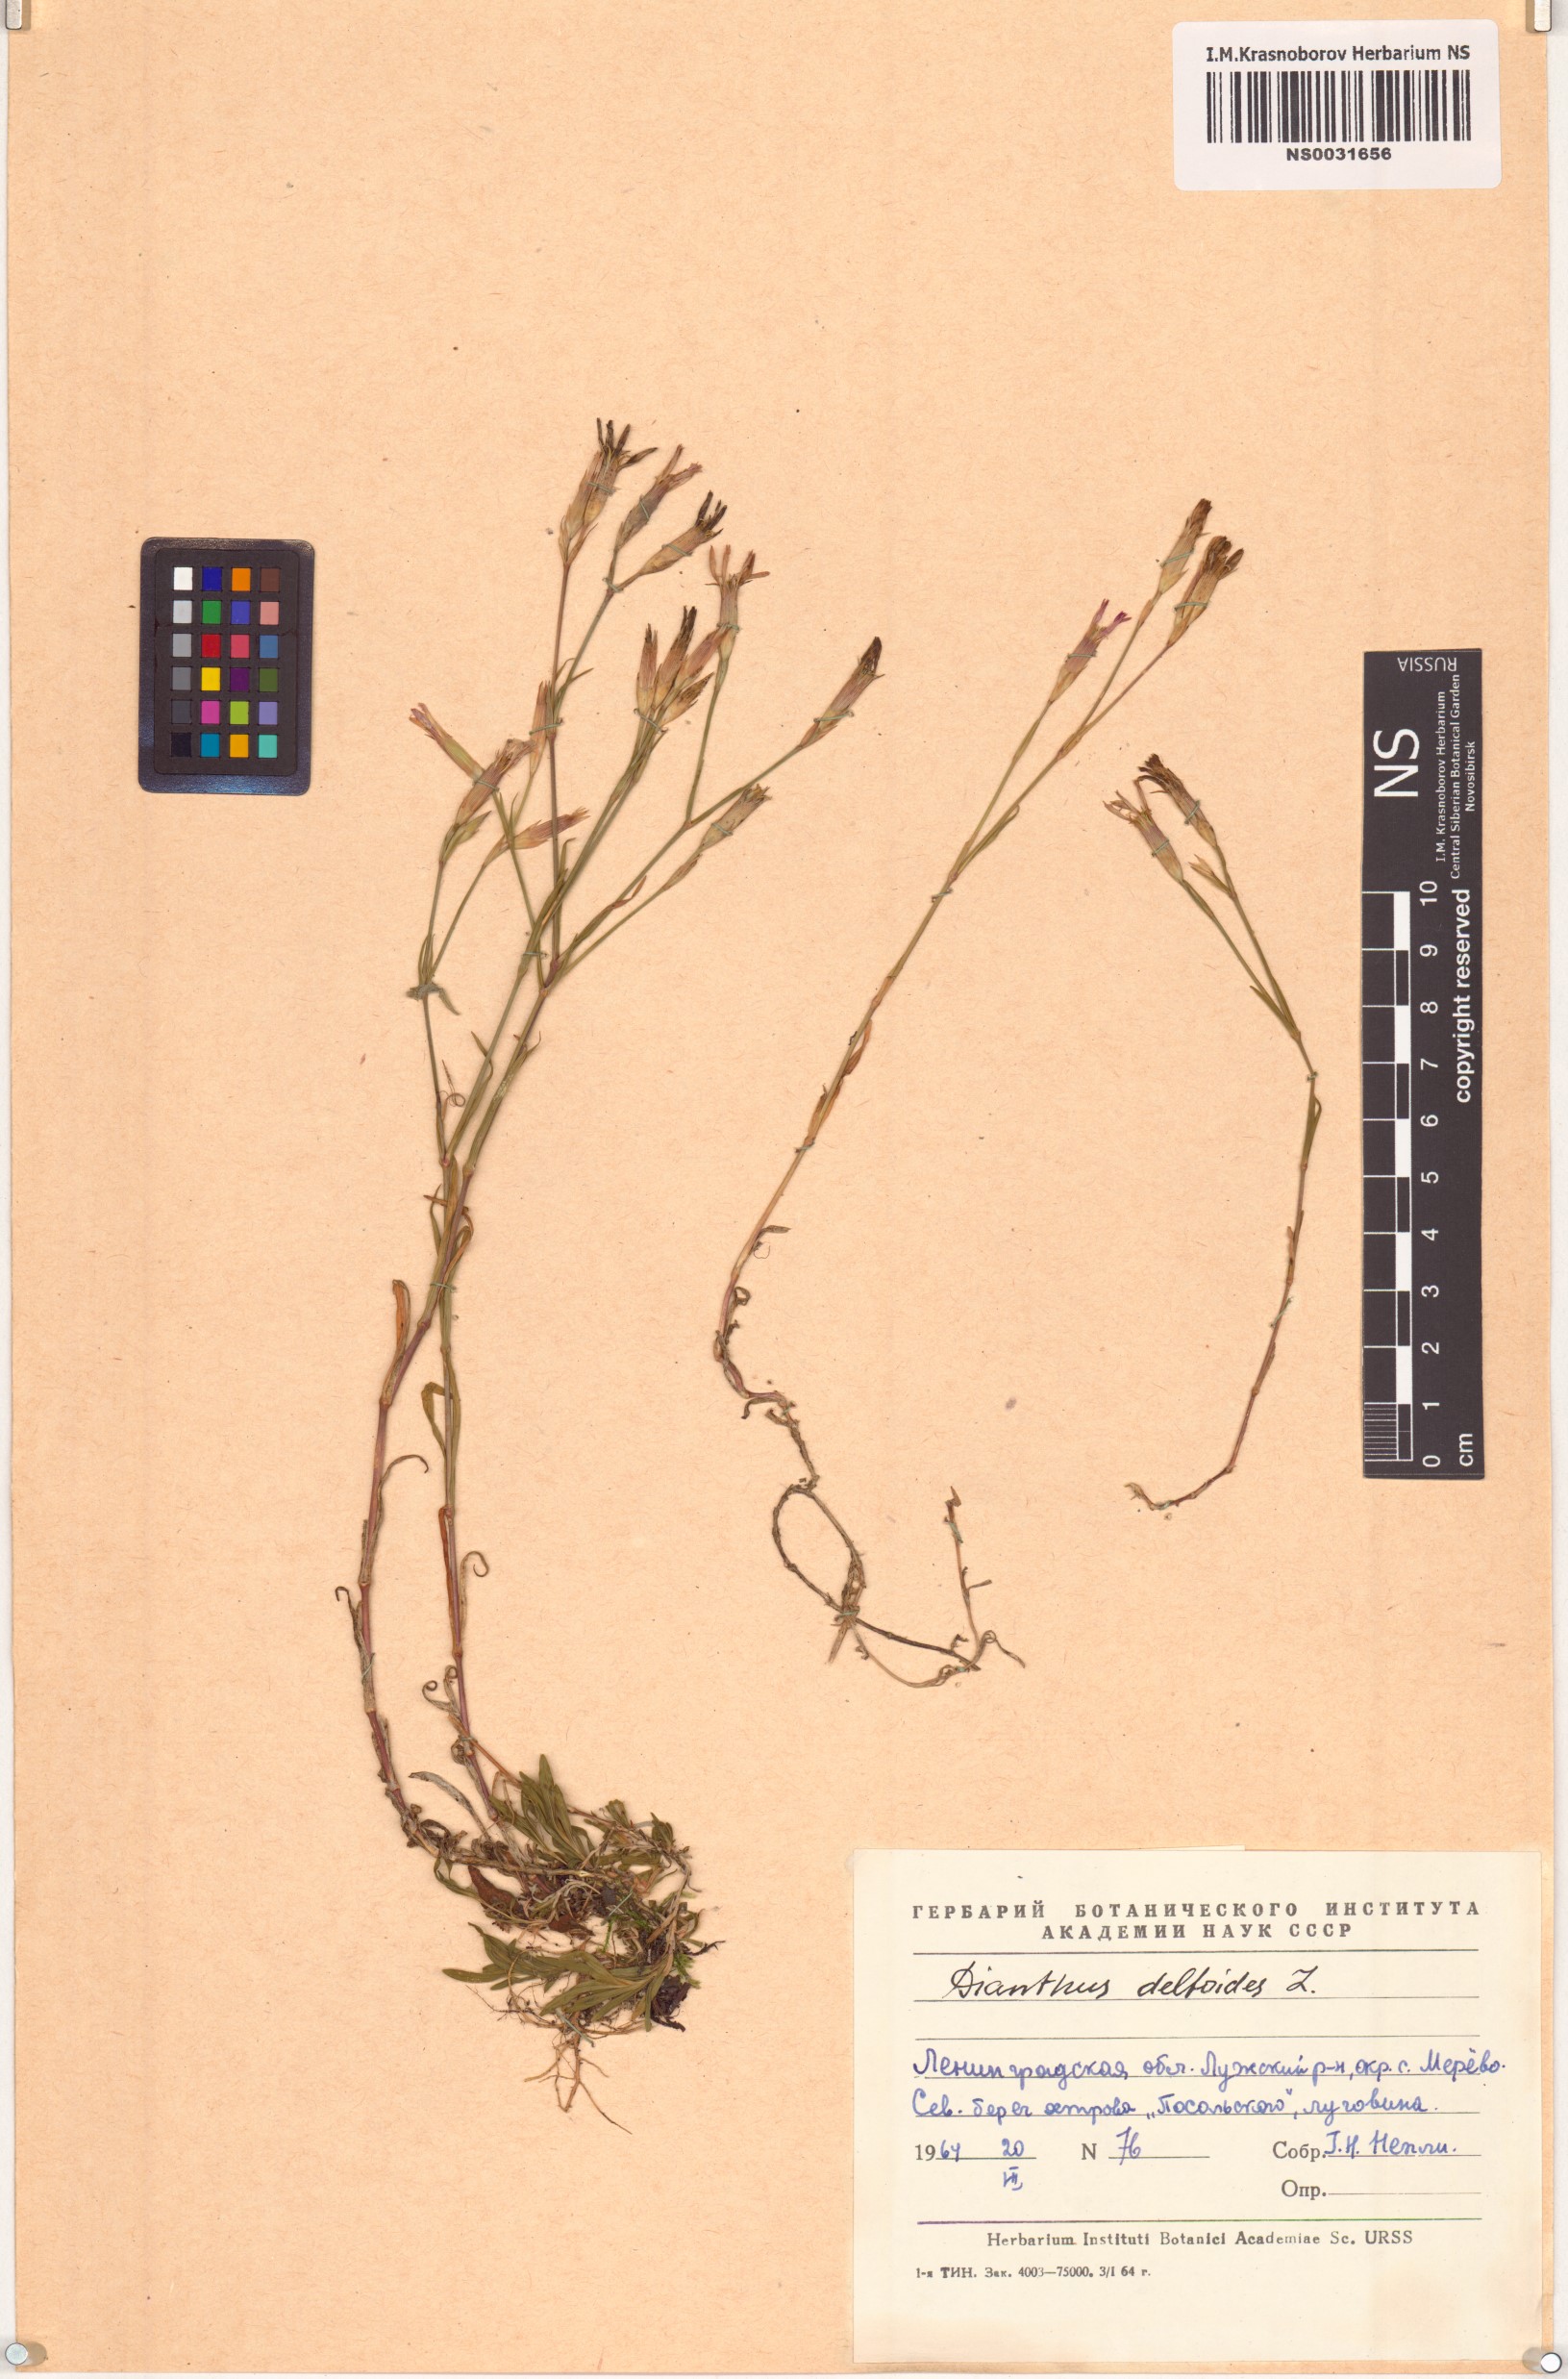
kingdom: Plantae
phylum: Tracheophyta
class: Magnoliopsida
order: Caryophyllales
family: Caryophyllaceae
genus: Dianthus
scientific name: Dianthus deltoides
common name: Maiden pink
